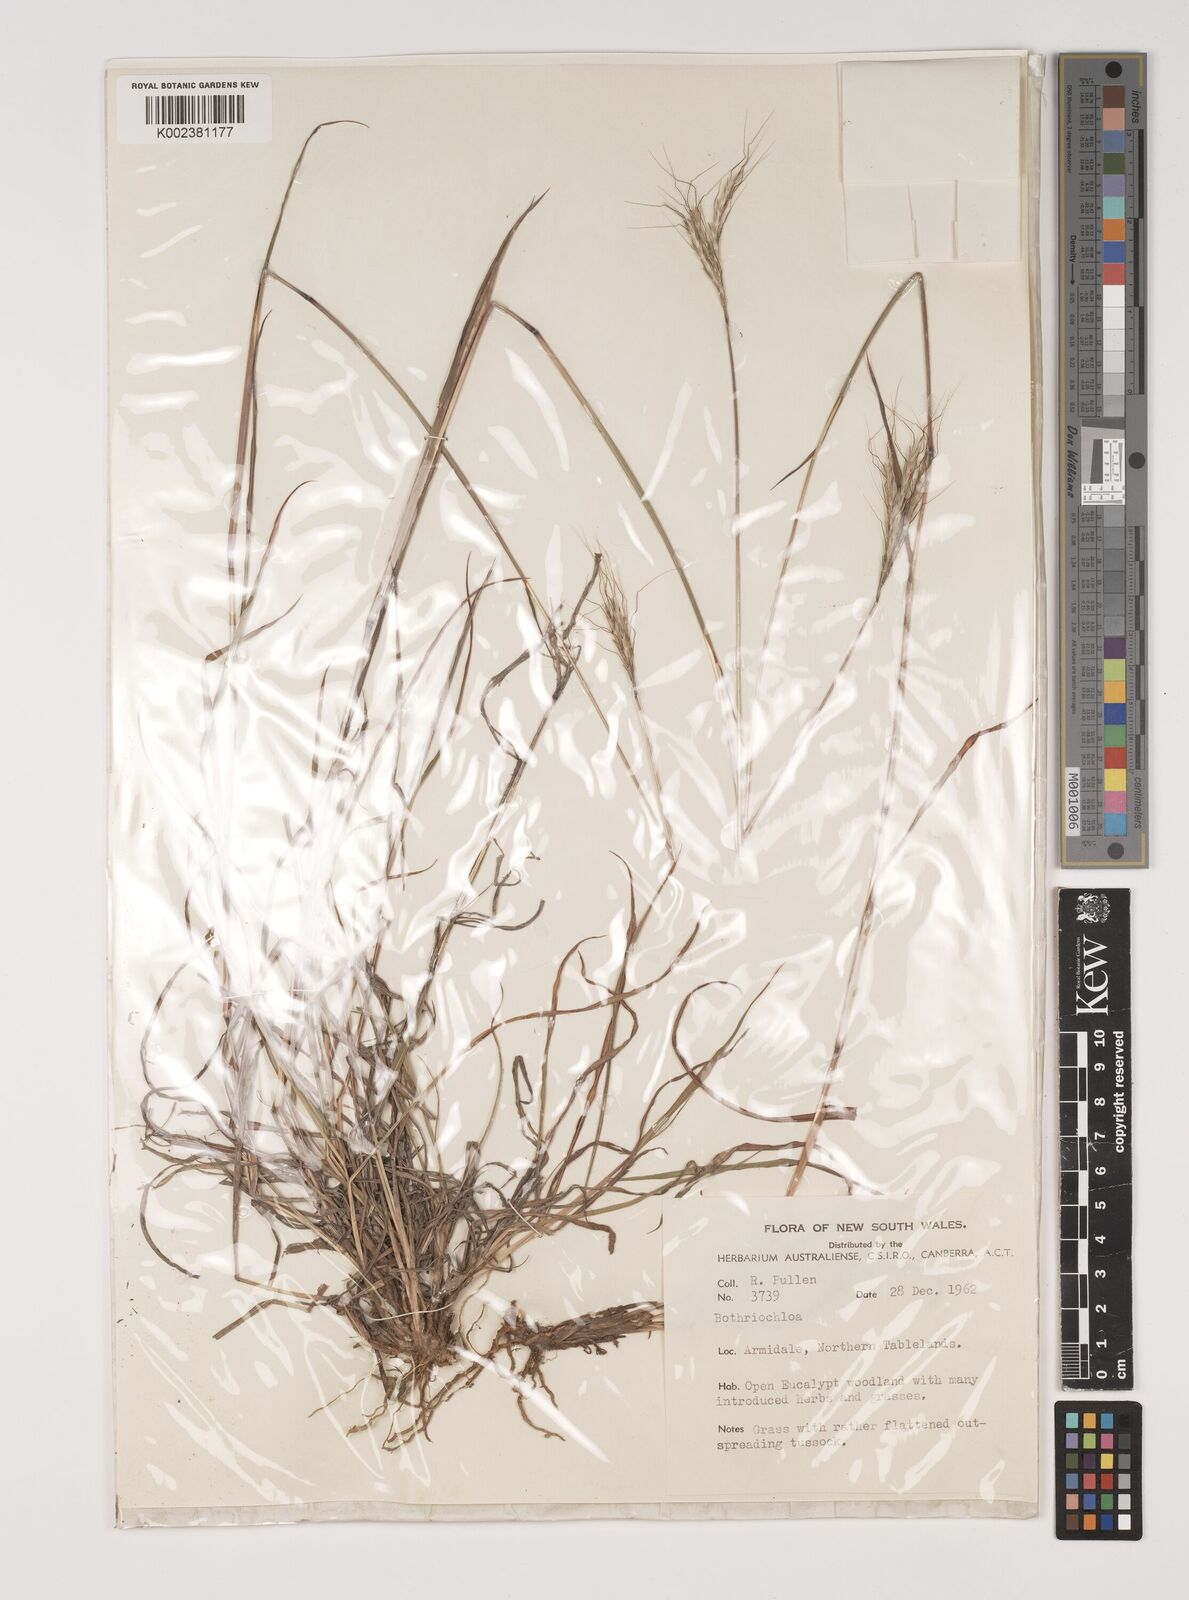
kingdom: Plantae
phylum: Tracheophyta
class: Liliopsida
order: Poales
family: Poaceae
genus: Bothriochloa
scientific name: Bothriochloa macra
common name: Pitted beard grass
